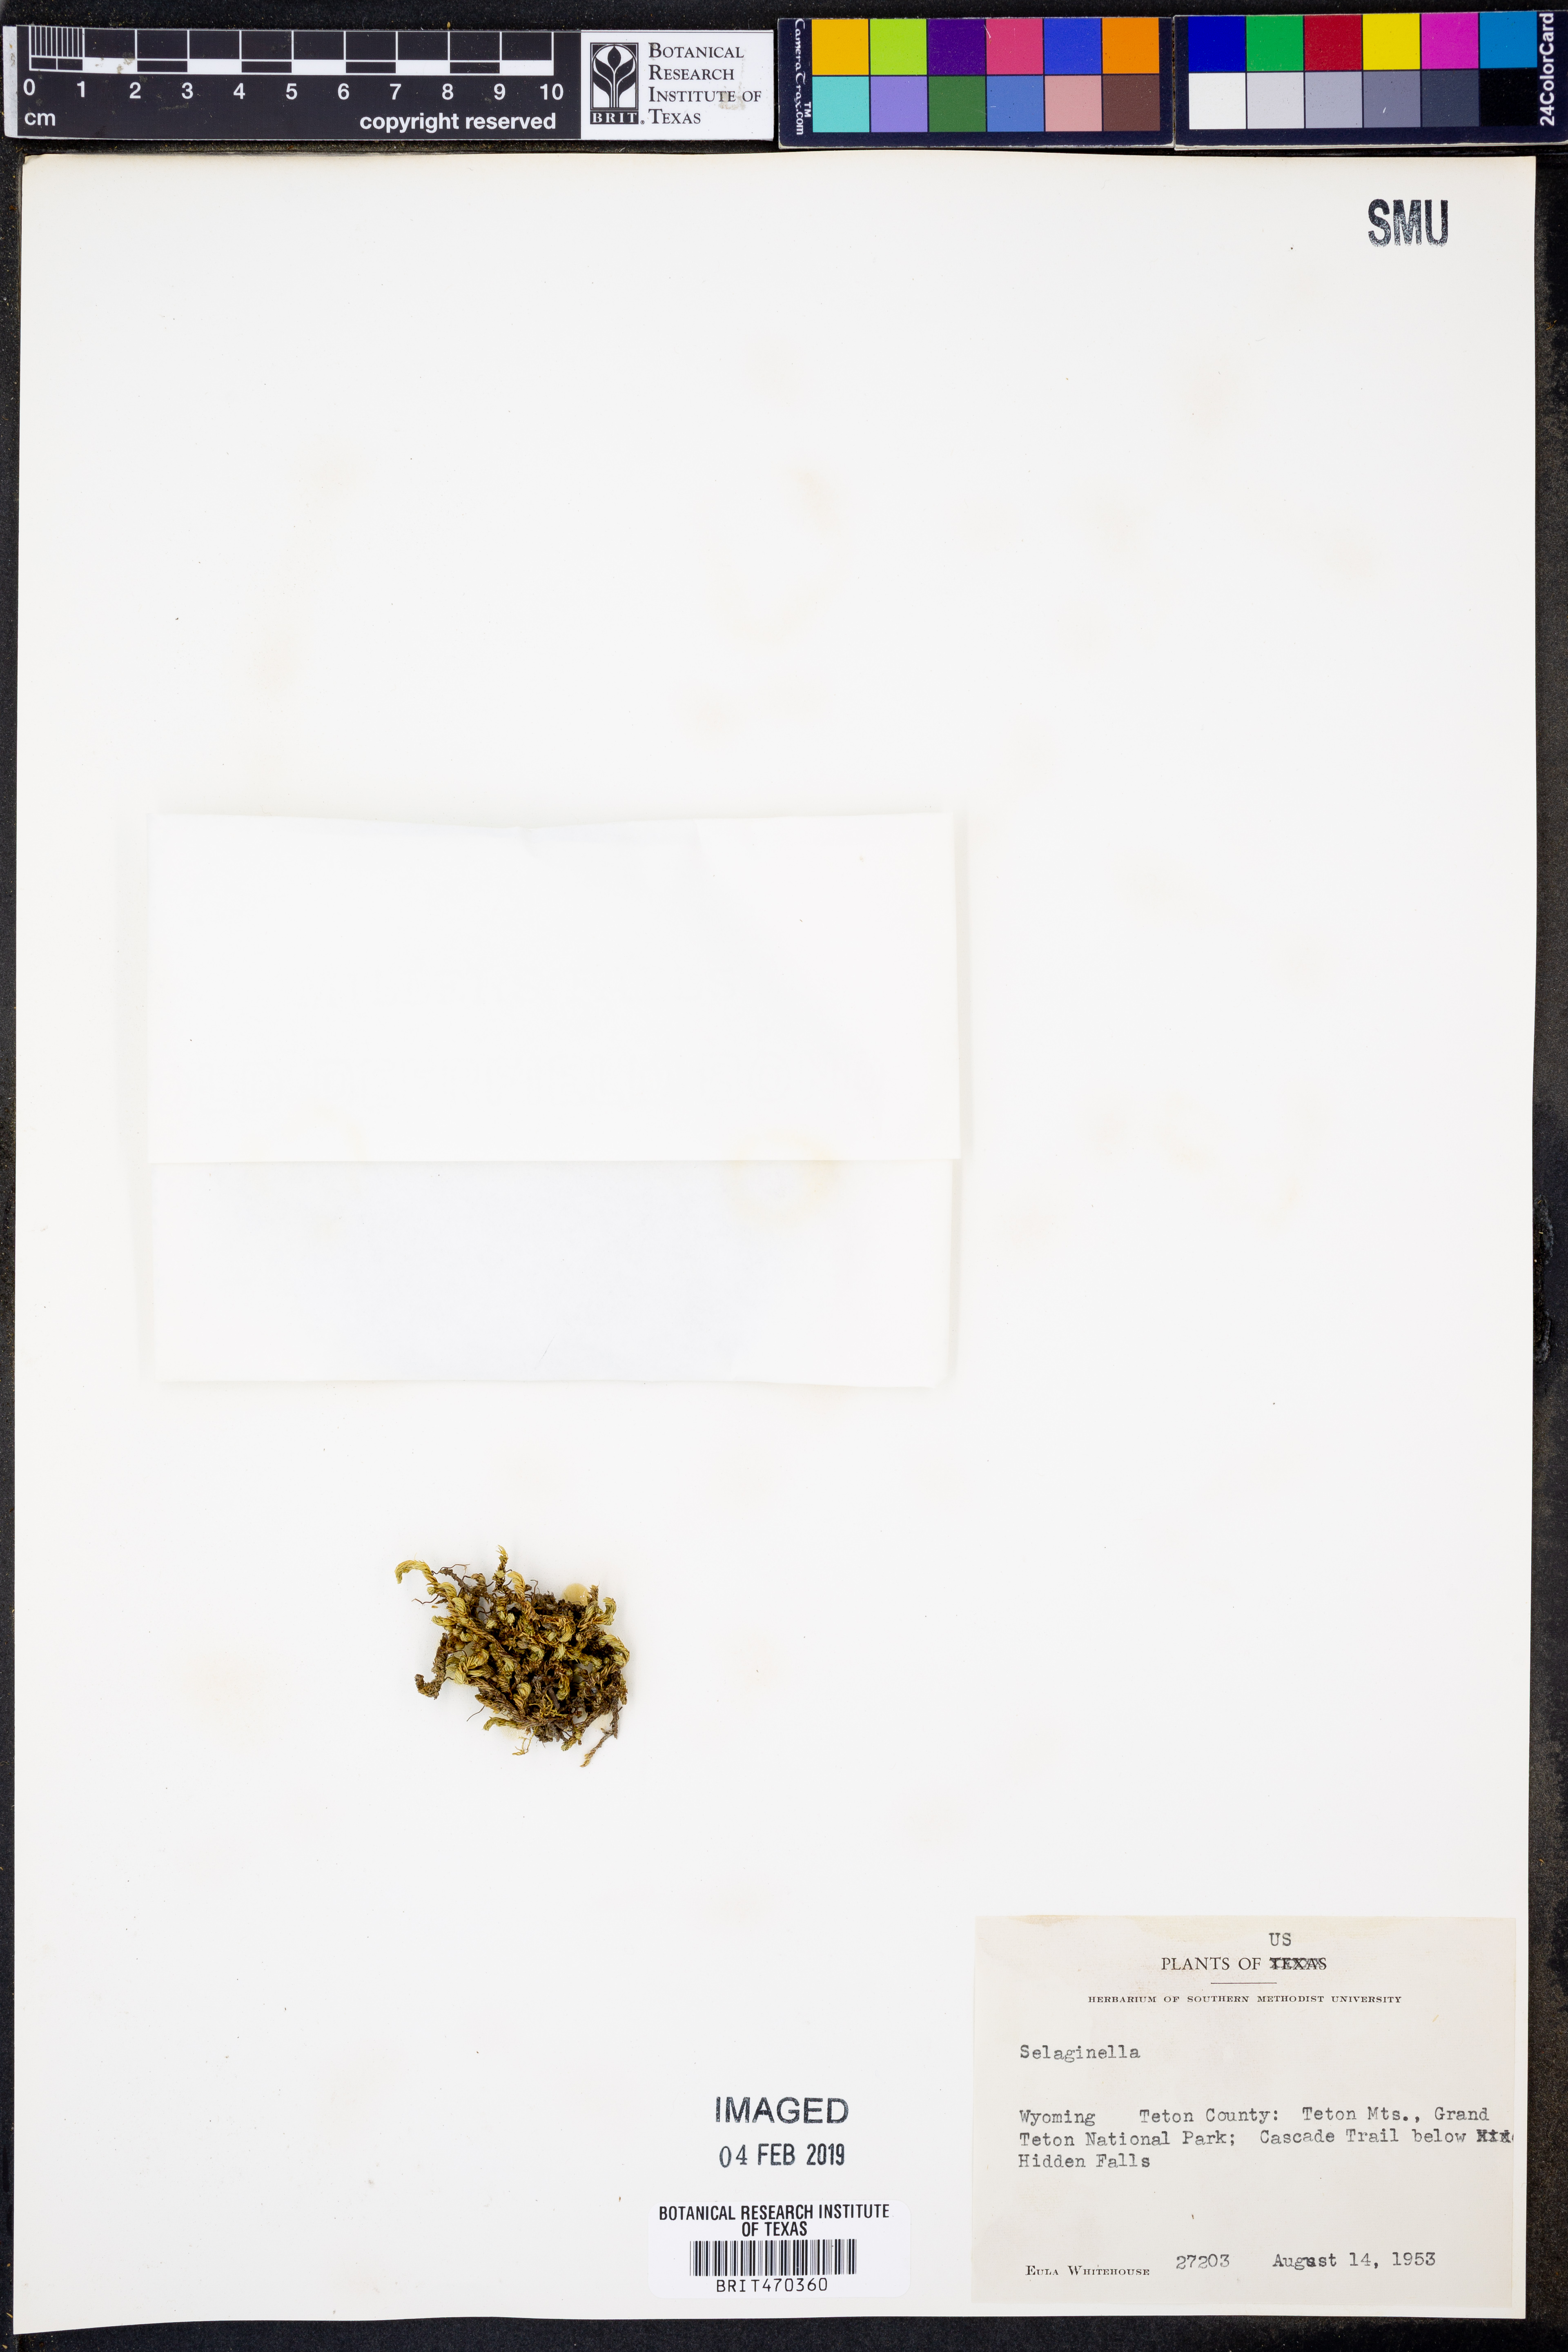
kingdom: Plantae
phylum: Tracheophyta
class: Lycopodiopsida
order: Selaginellales
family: Selaginellaceae
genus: Selaginella
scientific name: Selaginella
